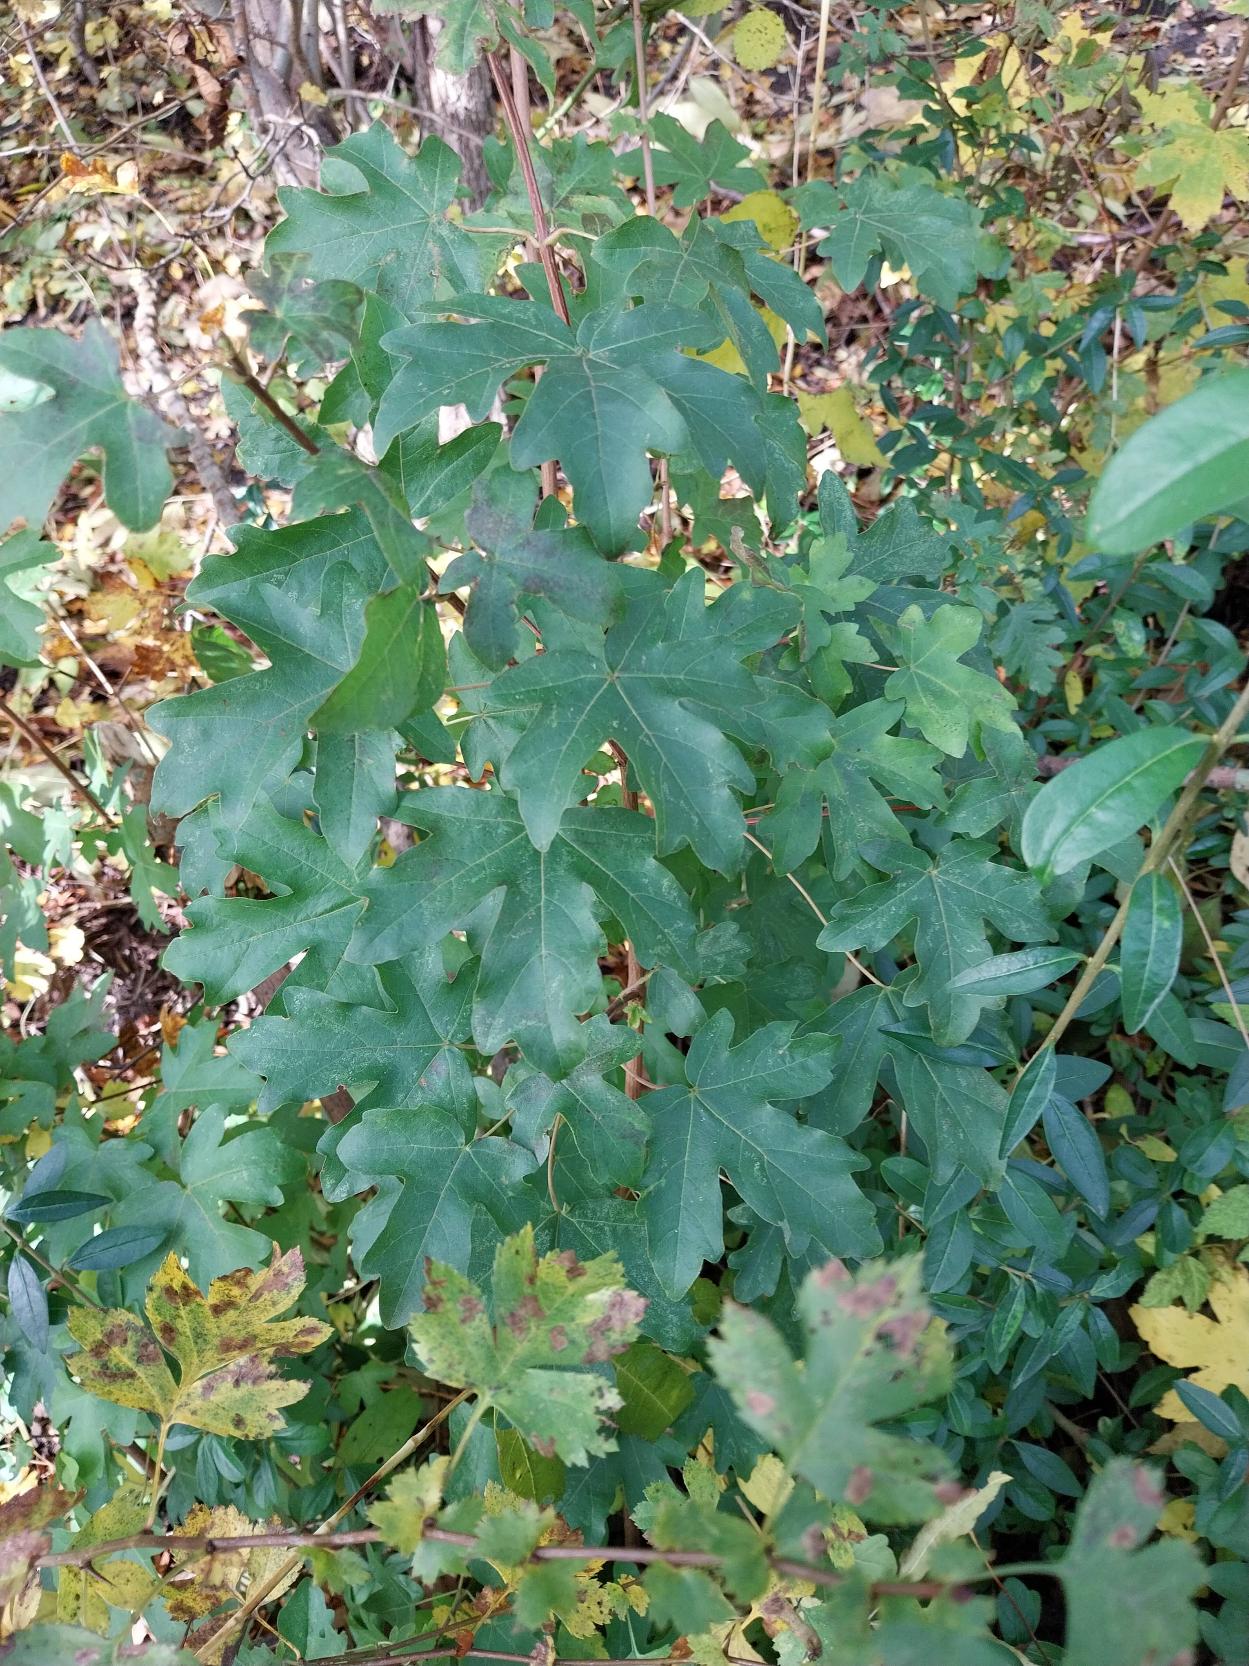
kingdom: Plantae
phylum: Tracheophyta
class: Magnoliopsida
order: Sapindales
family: Sapindaceae
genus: Acer
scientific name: Acer campestre
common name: Navr
